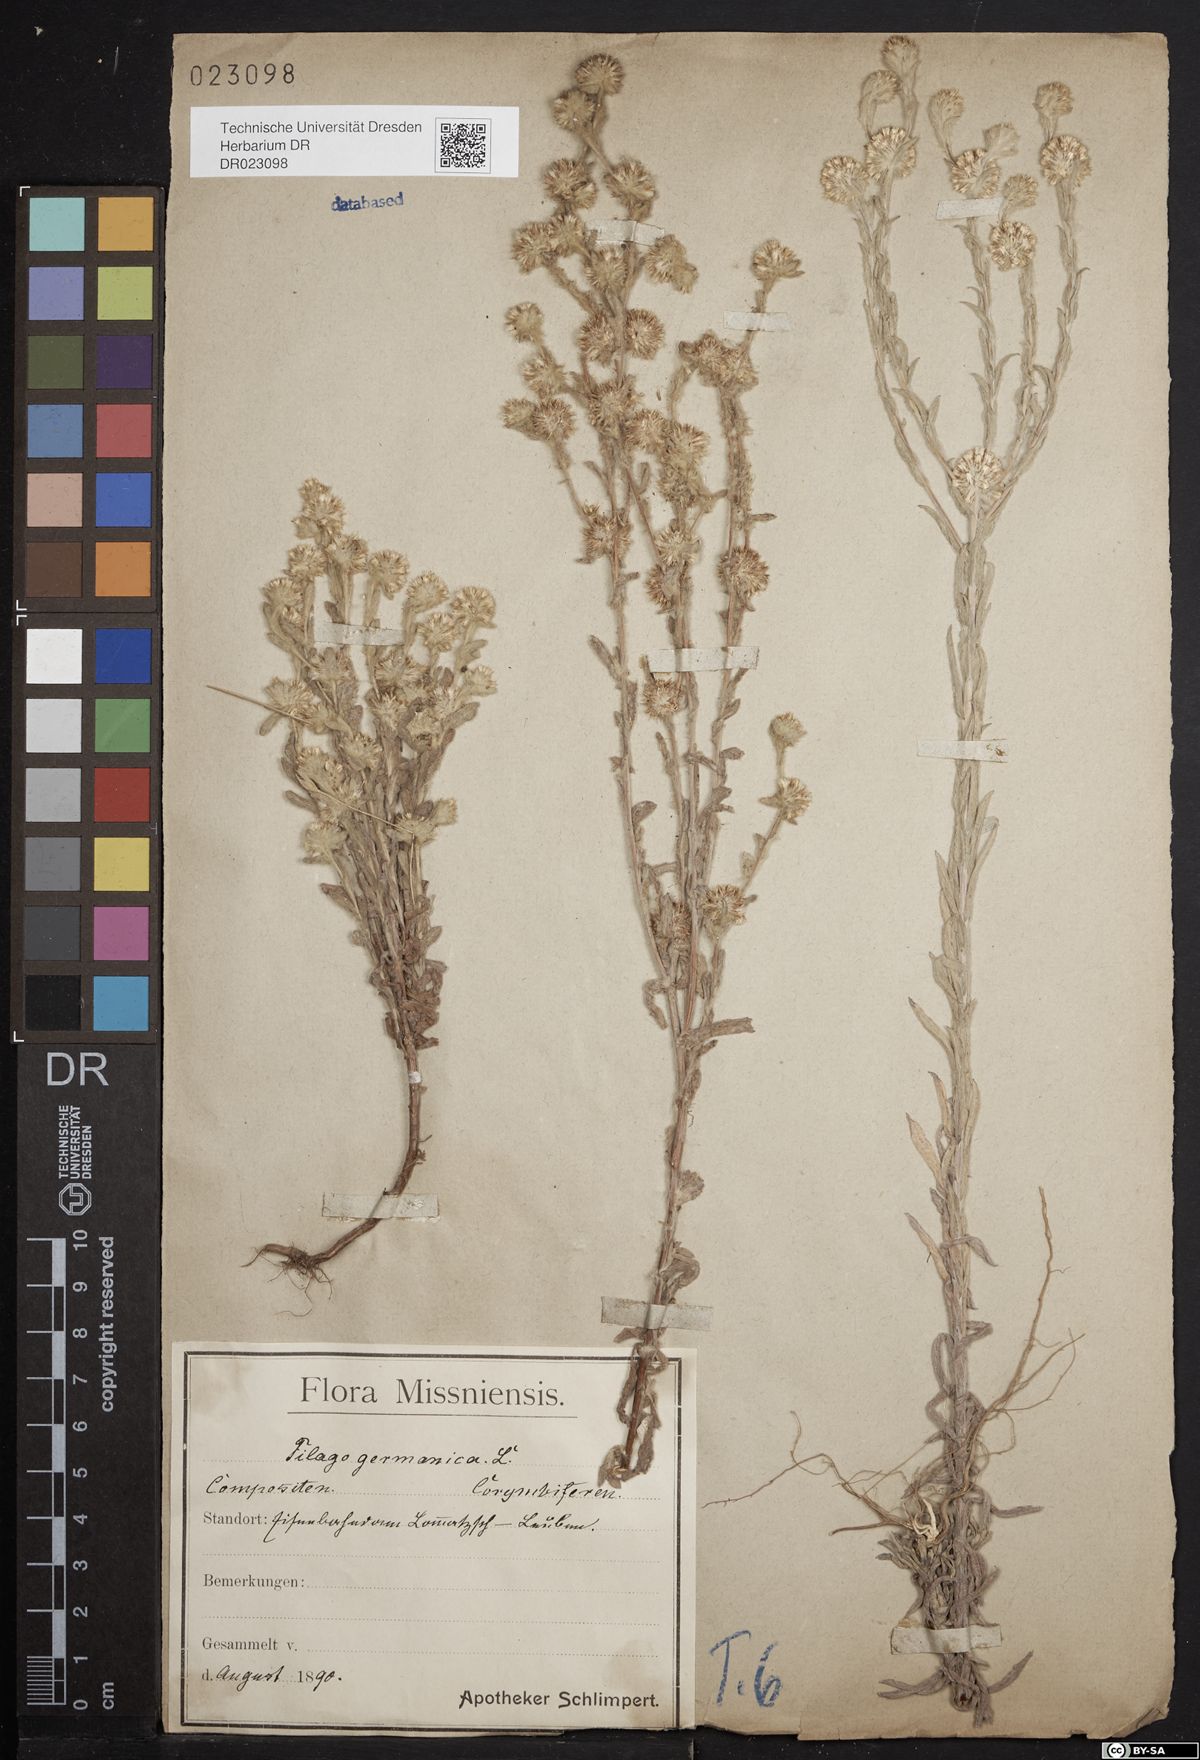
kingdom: Plantae
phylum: Tracheophyta
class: Magnoliopsida
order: Asterales
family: Asteraceae
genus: Filago
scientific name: Filago germanica
